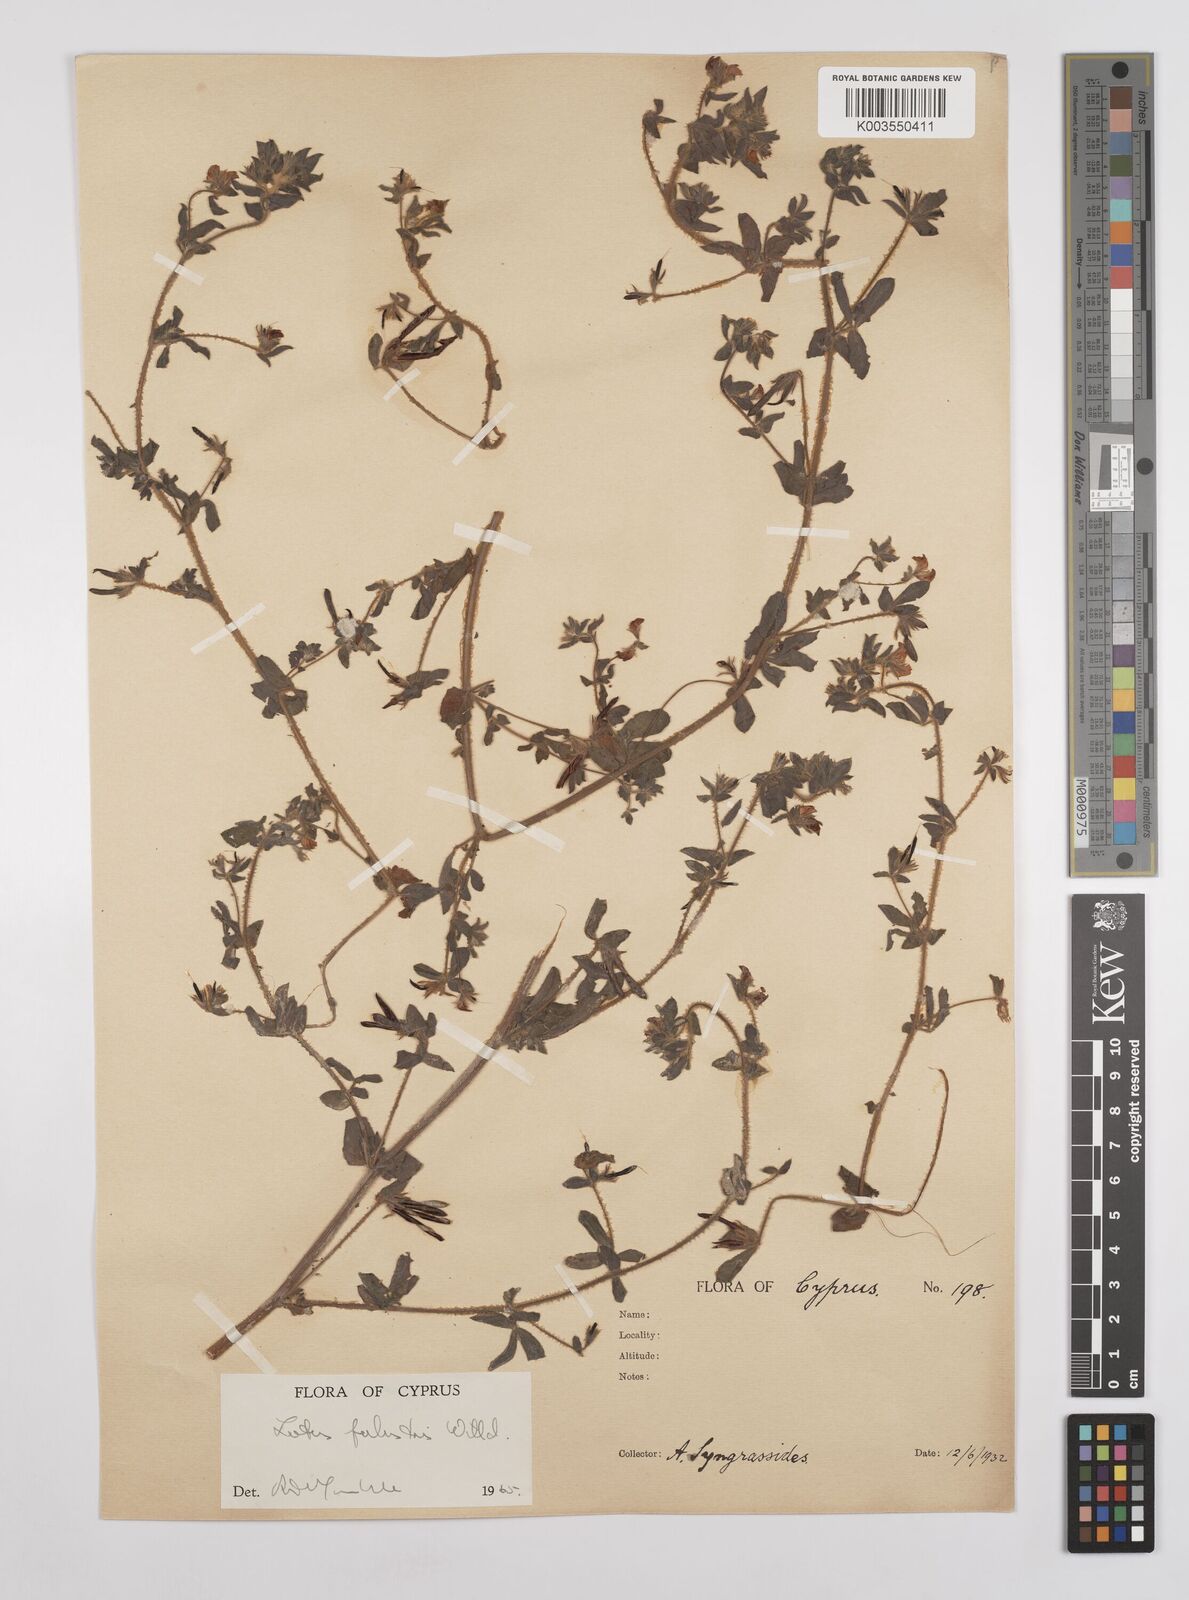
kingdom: Plantae
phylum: Tracheophyta
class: Magnoliopsida
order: Fabales
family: Fabaceae
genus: Lotus
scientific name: Lotus palustris
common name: Large birds-foot trefoil
